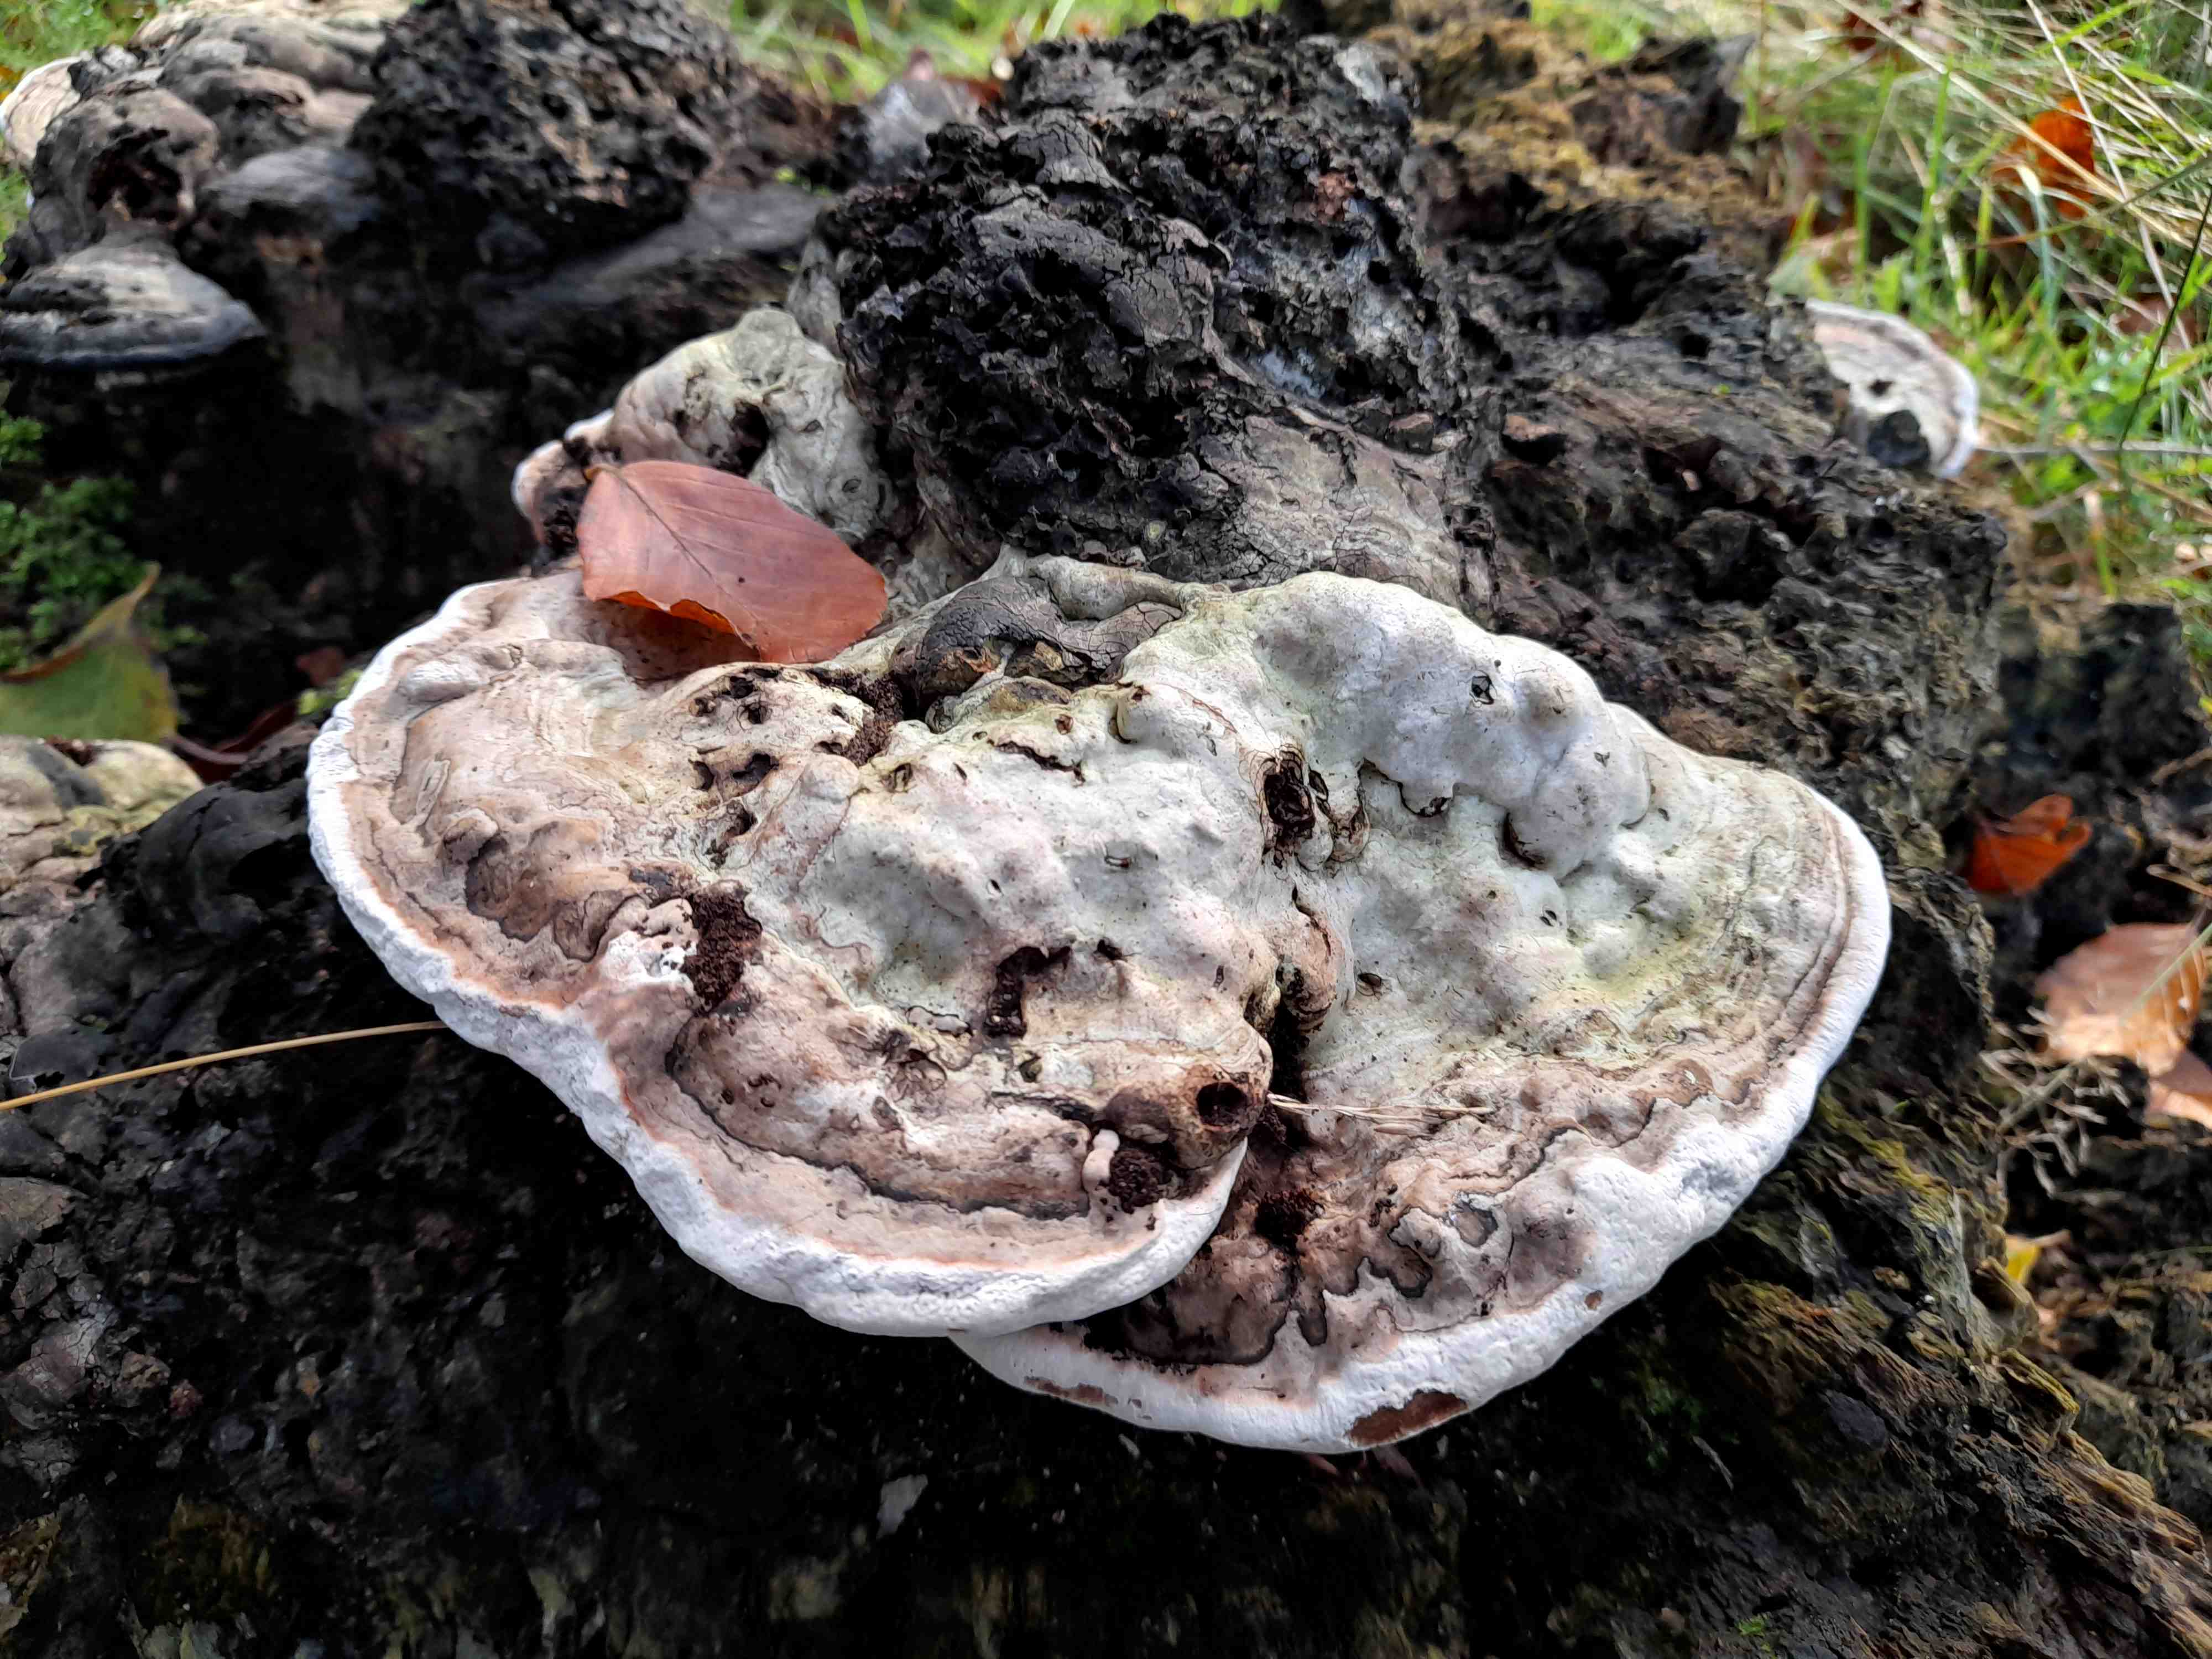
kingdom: Fungi
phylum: Basidiomycota
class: Agaricomycetes
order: Polyporales
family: Polyporaceae
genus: Ganoderma
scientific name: Ganoderma applanatum
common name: flad lakporesvamp
